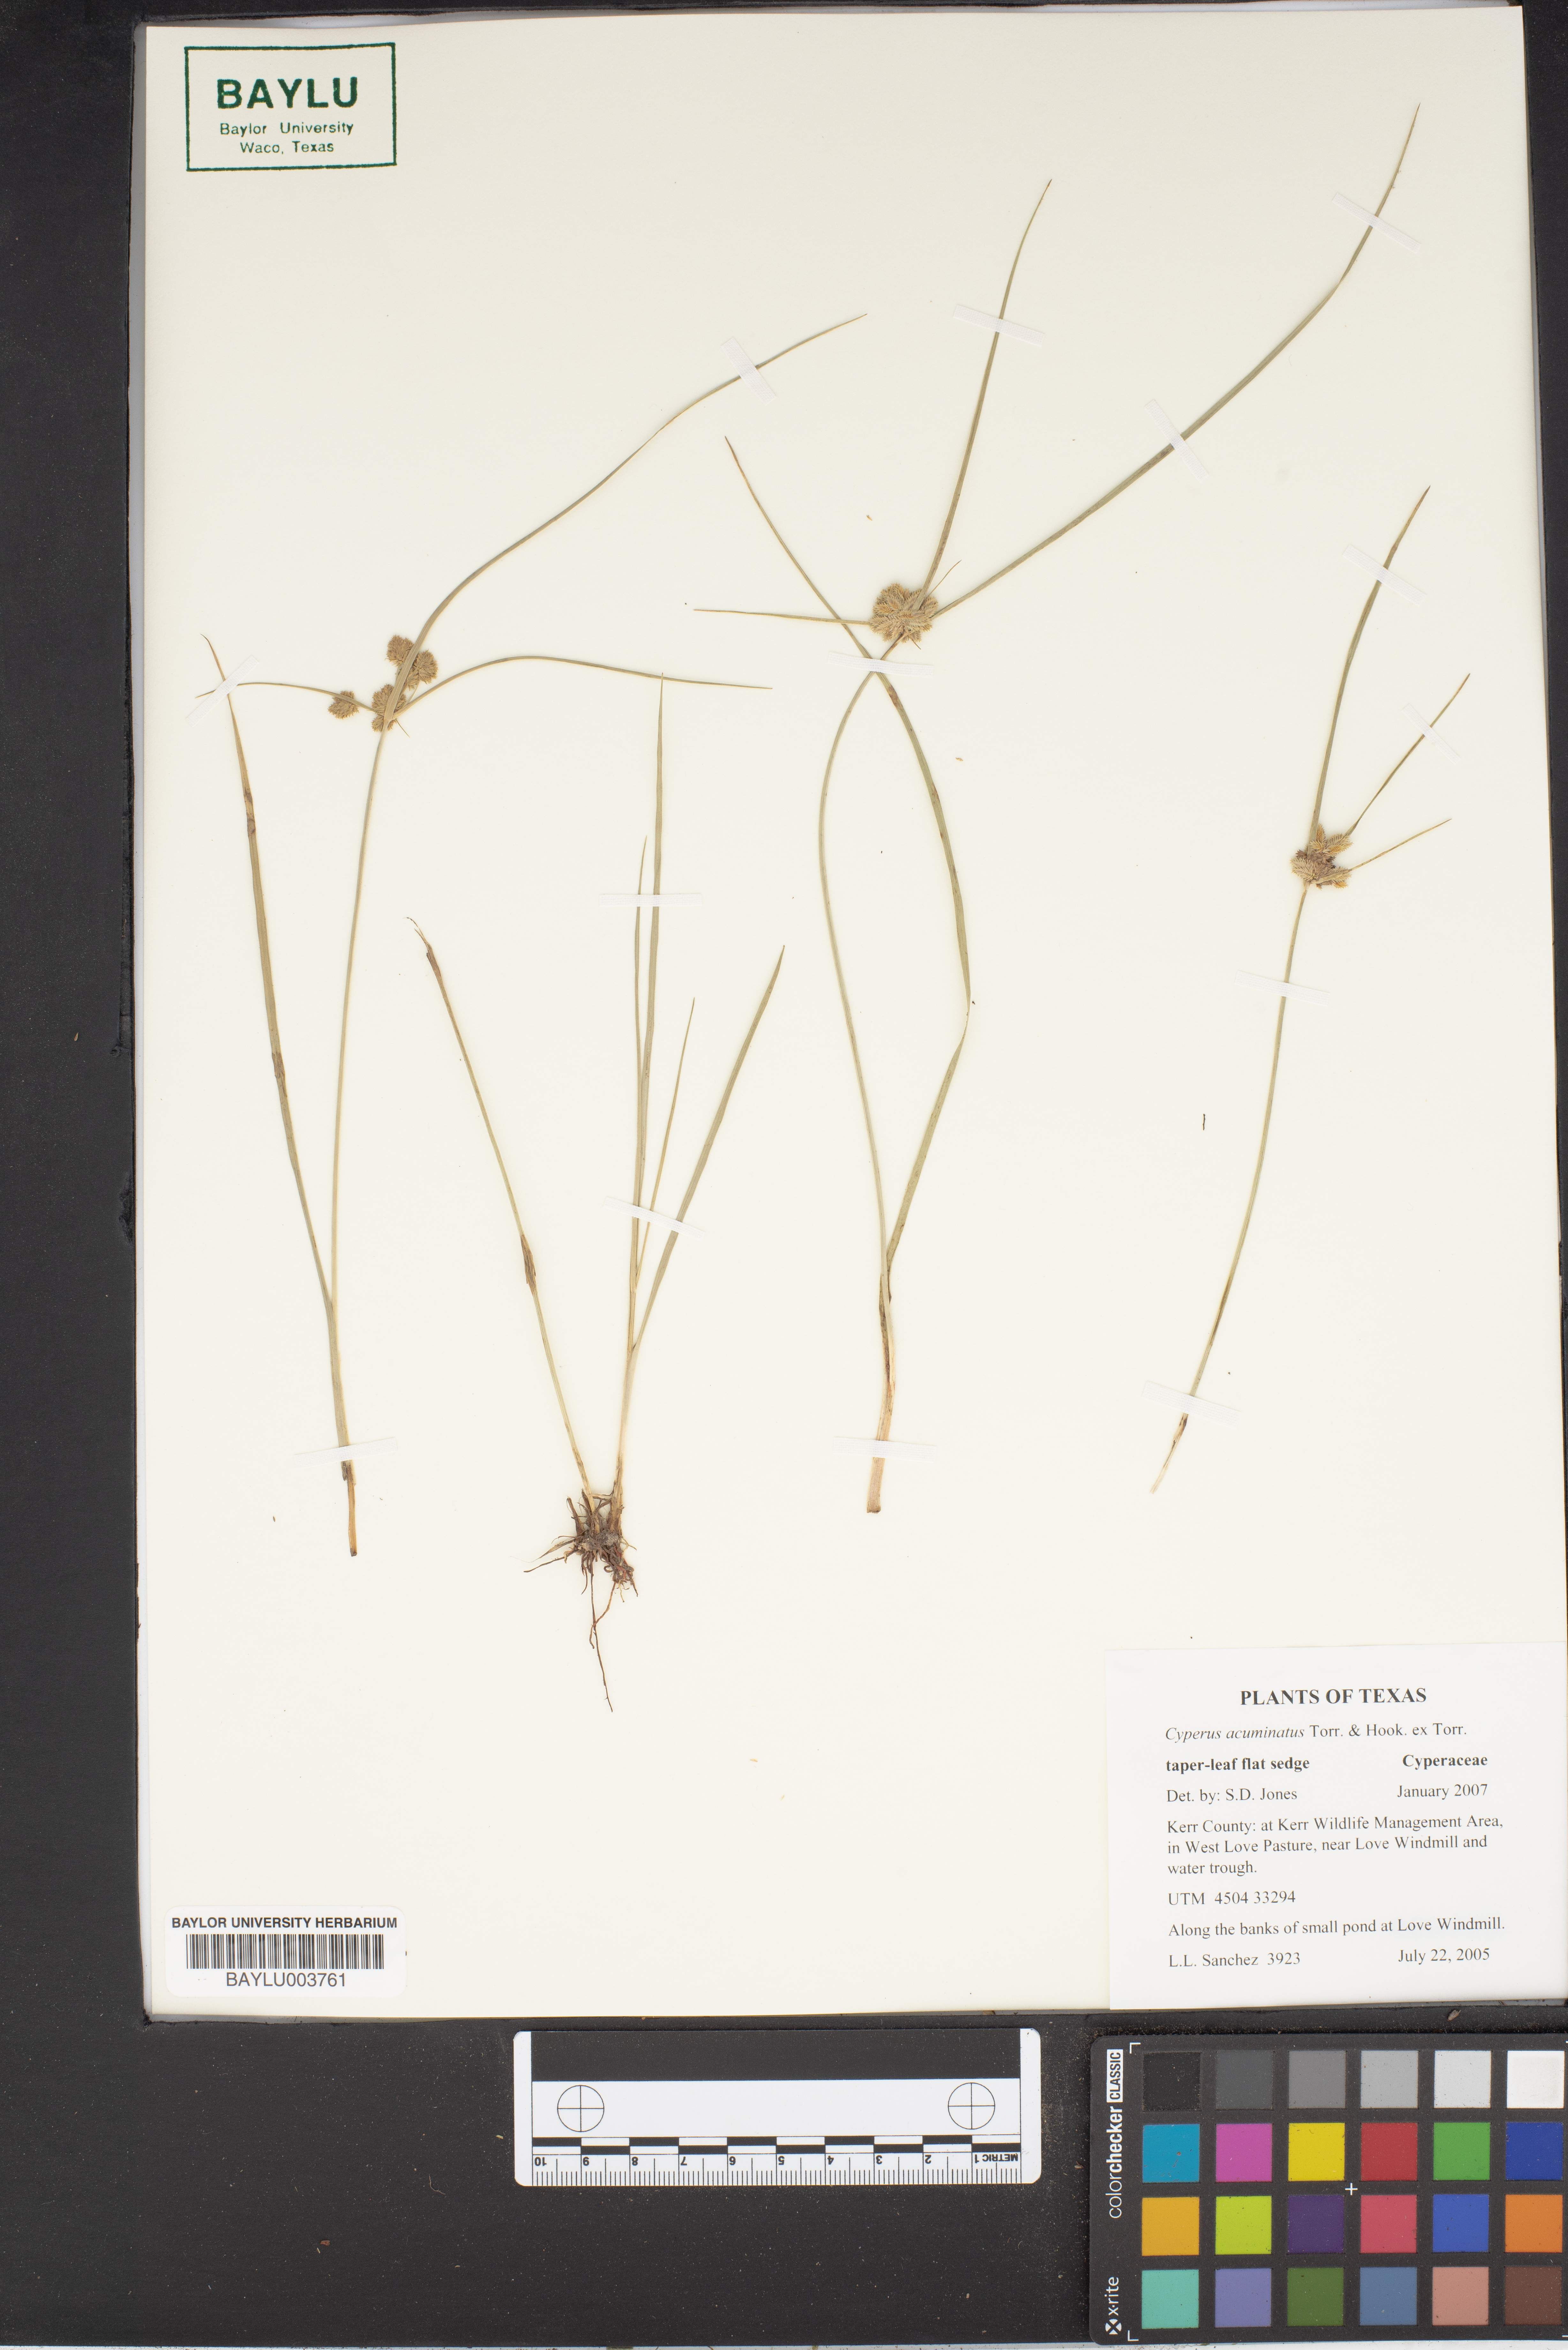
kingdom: Plantae
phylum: Tracheophyta
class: Liliopsida
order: Poales
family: Cyperaceae
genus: Cyperus
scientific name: Cyperus acuminatus
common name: Short-pointed cyperus
